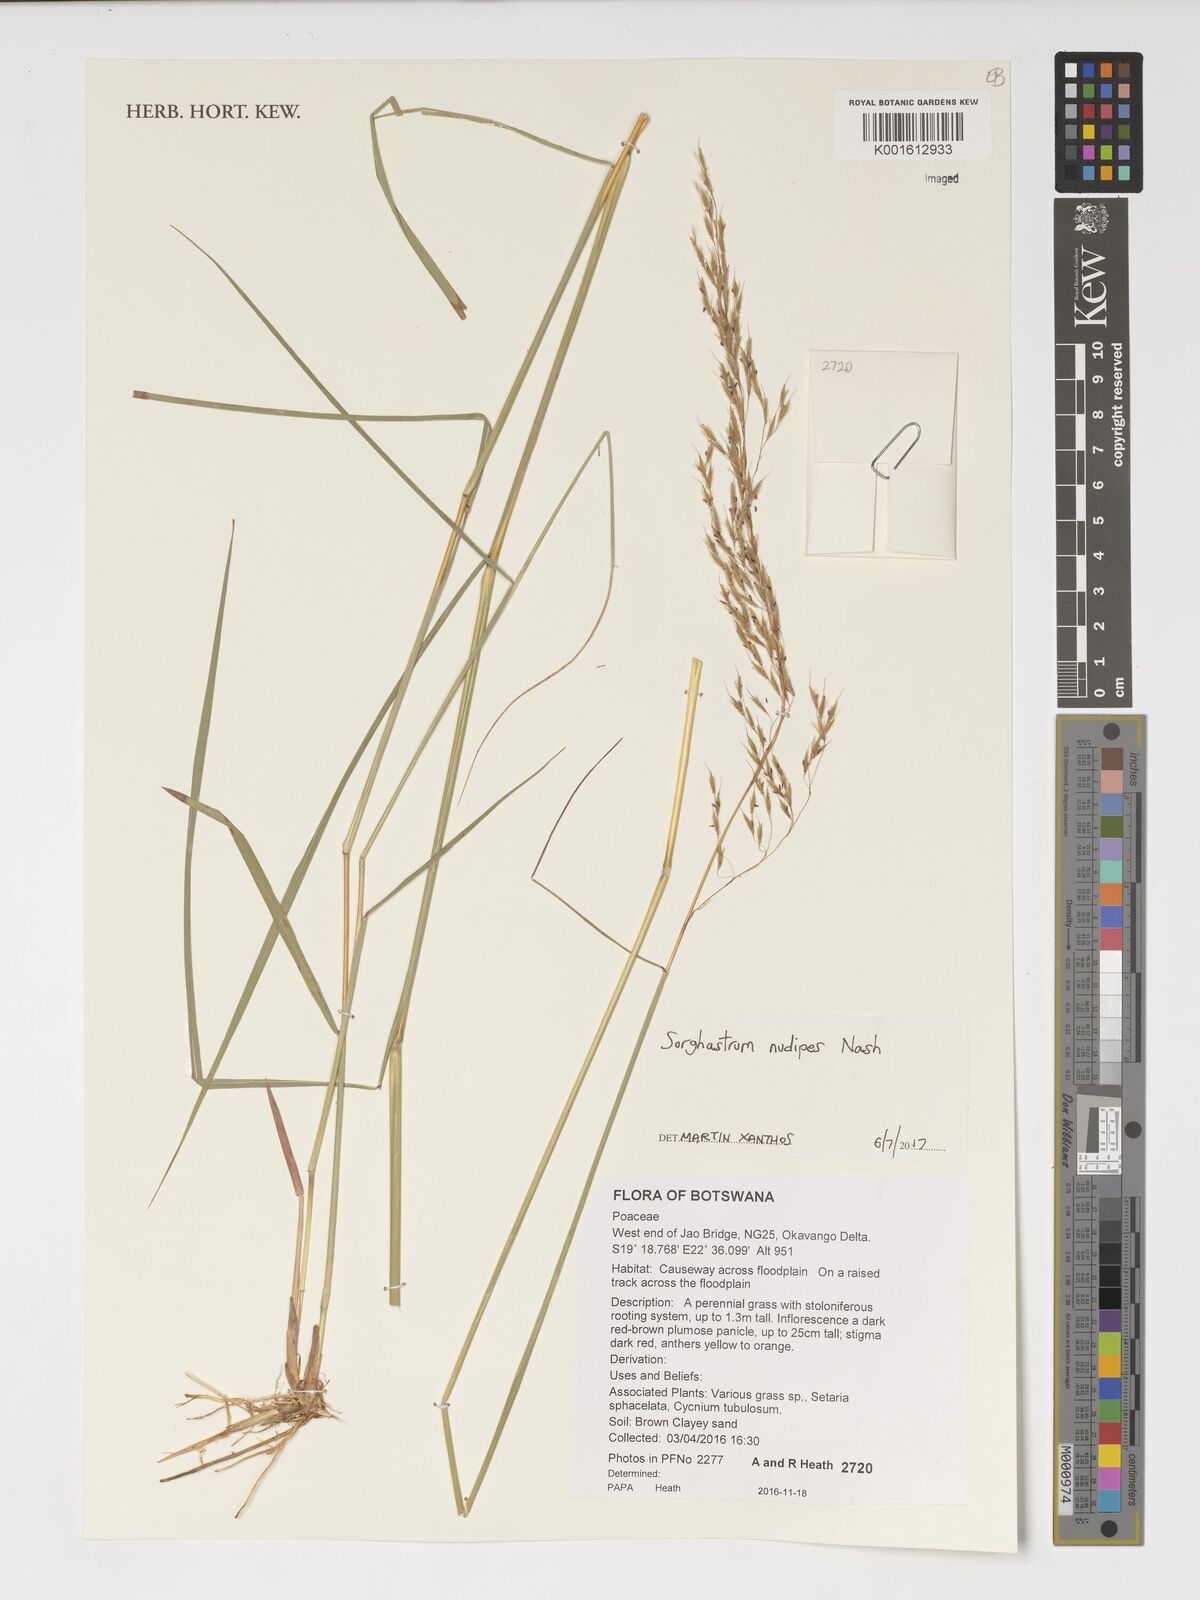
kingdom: Plantae
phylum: Tracheophyta
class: Liliopsida
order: Poales
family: Poaceae
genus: Sorghastrum
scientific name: Sorghastrum nudipes
